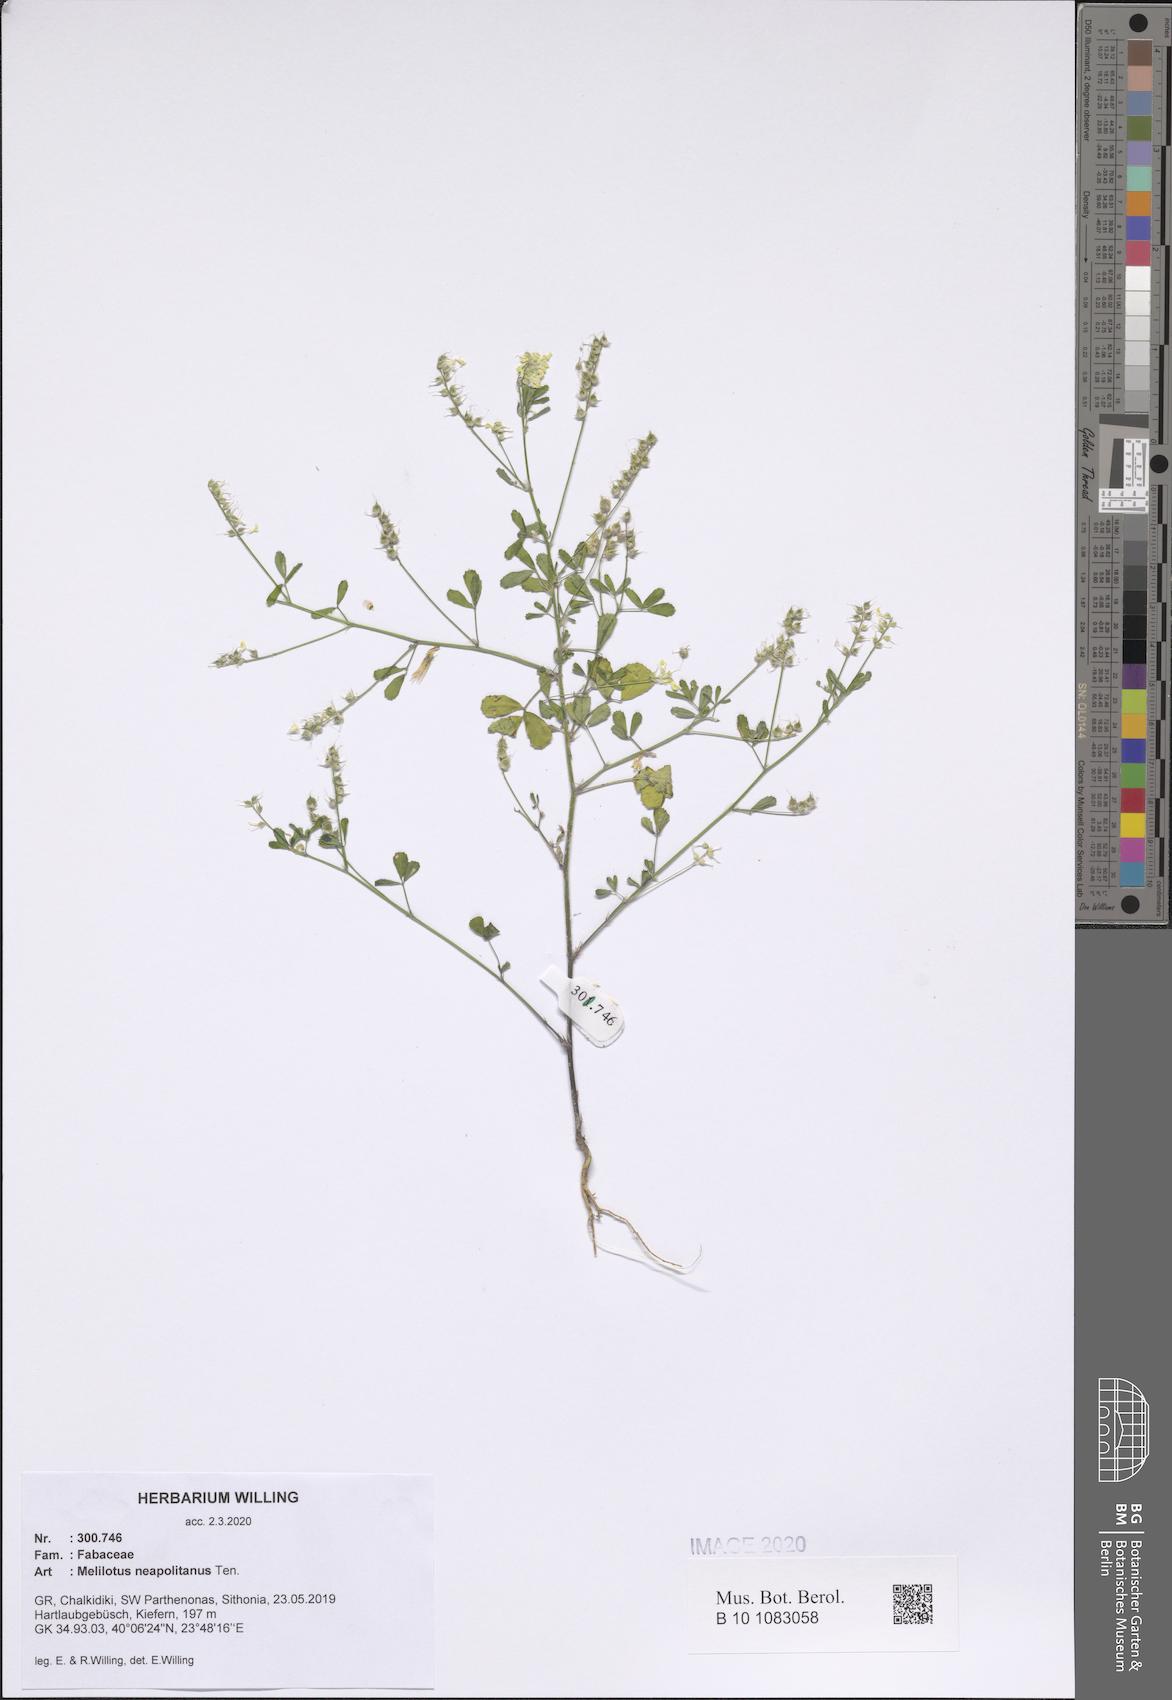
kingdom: Plantae
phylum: Tracheophyta
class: Magnoliopsida
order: Fabales
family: Fabaceae
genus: Melilotus
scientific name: Melilotus neapolitanus
